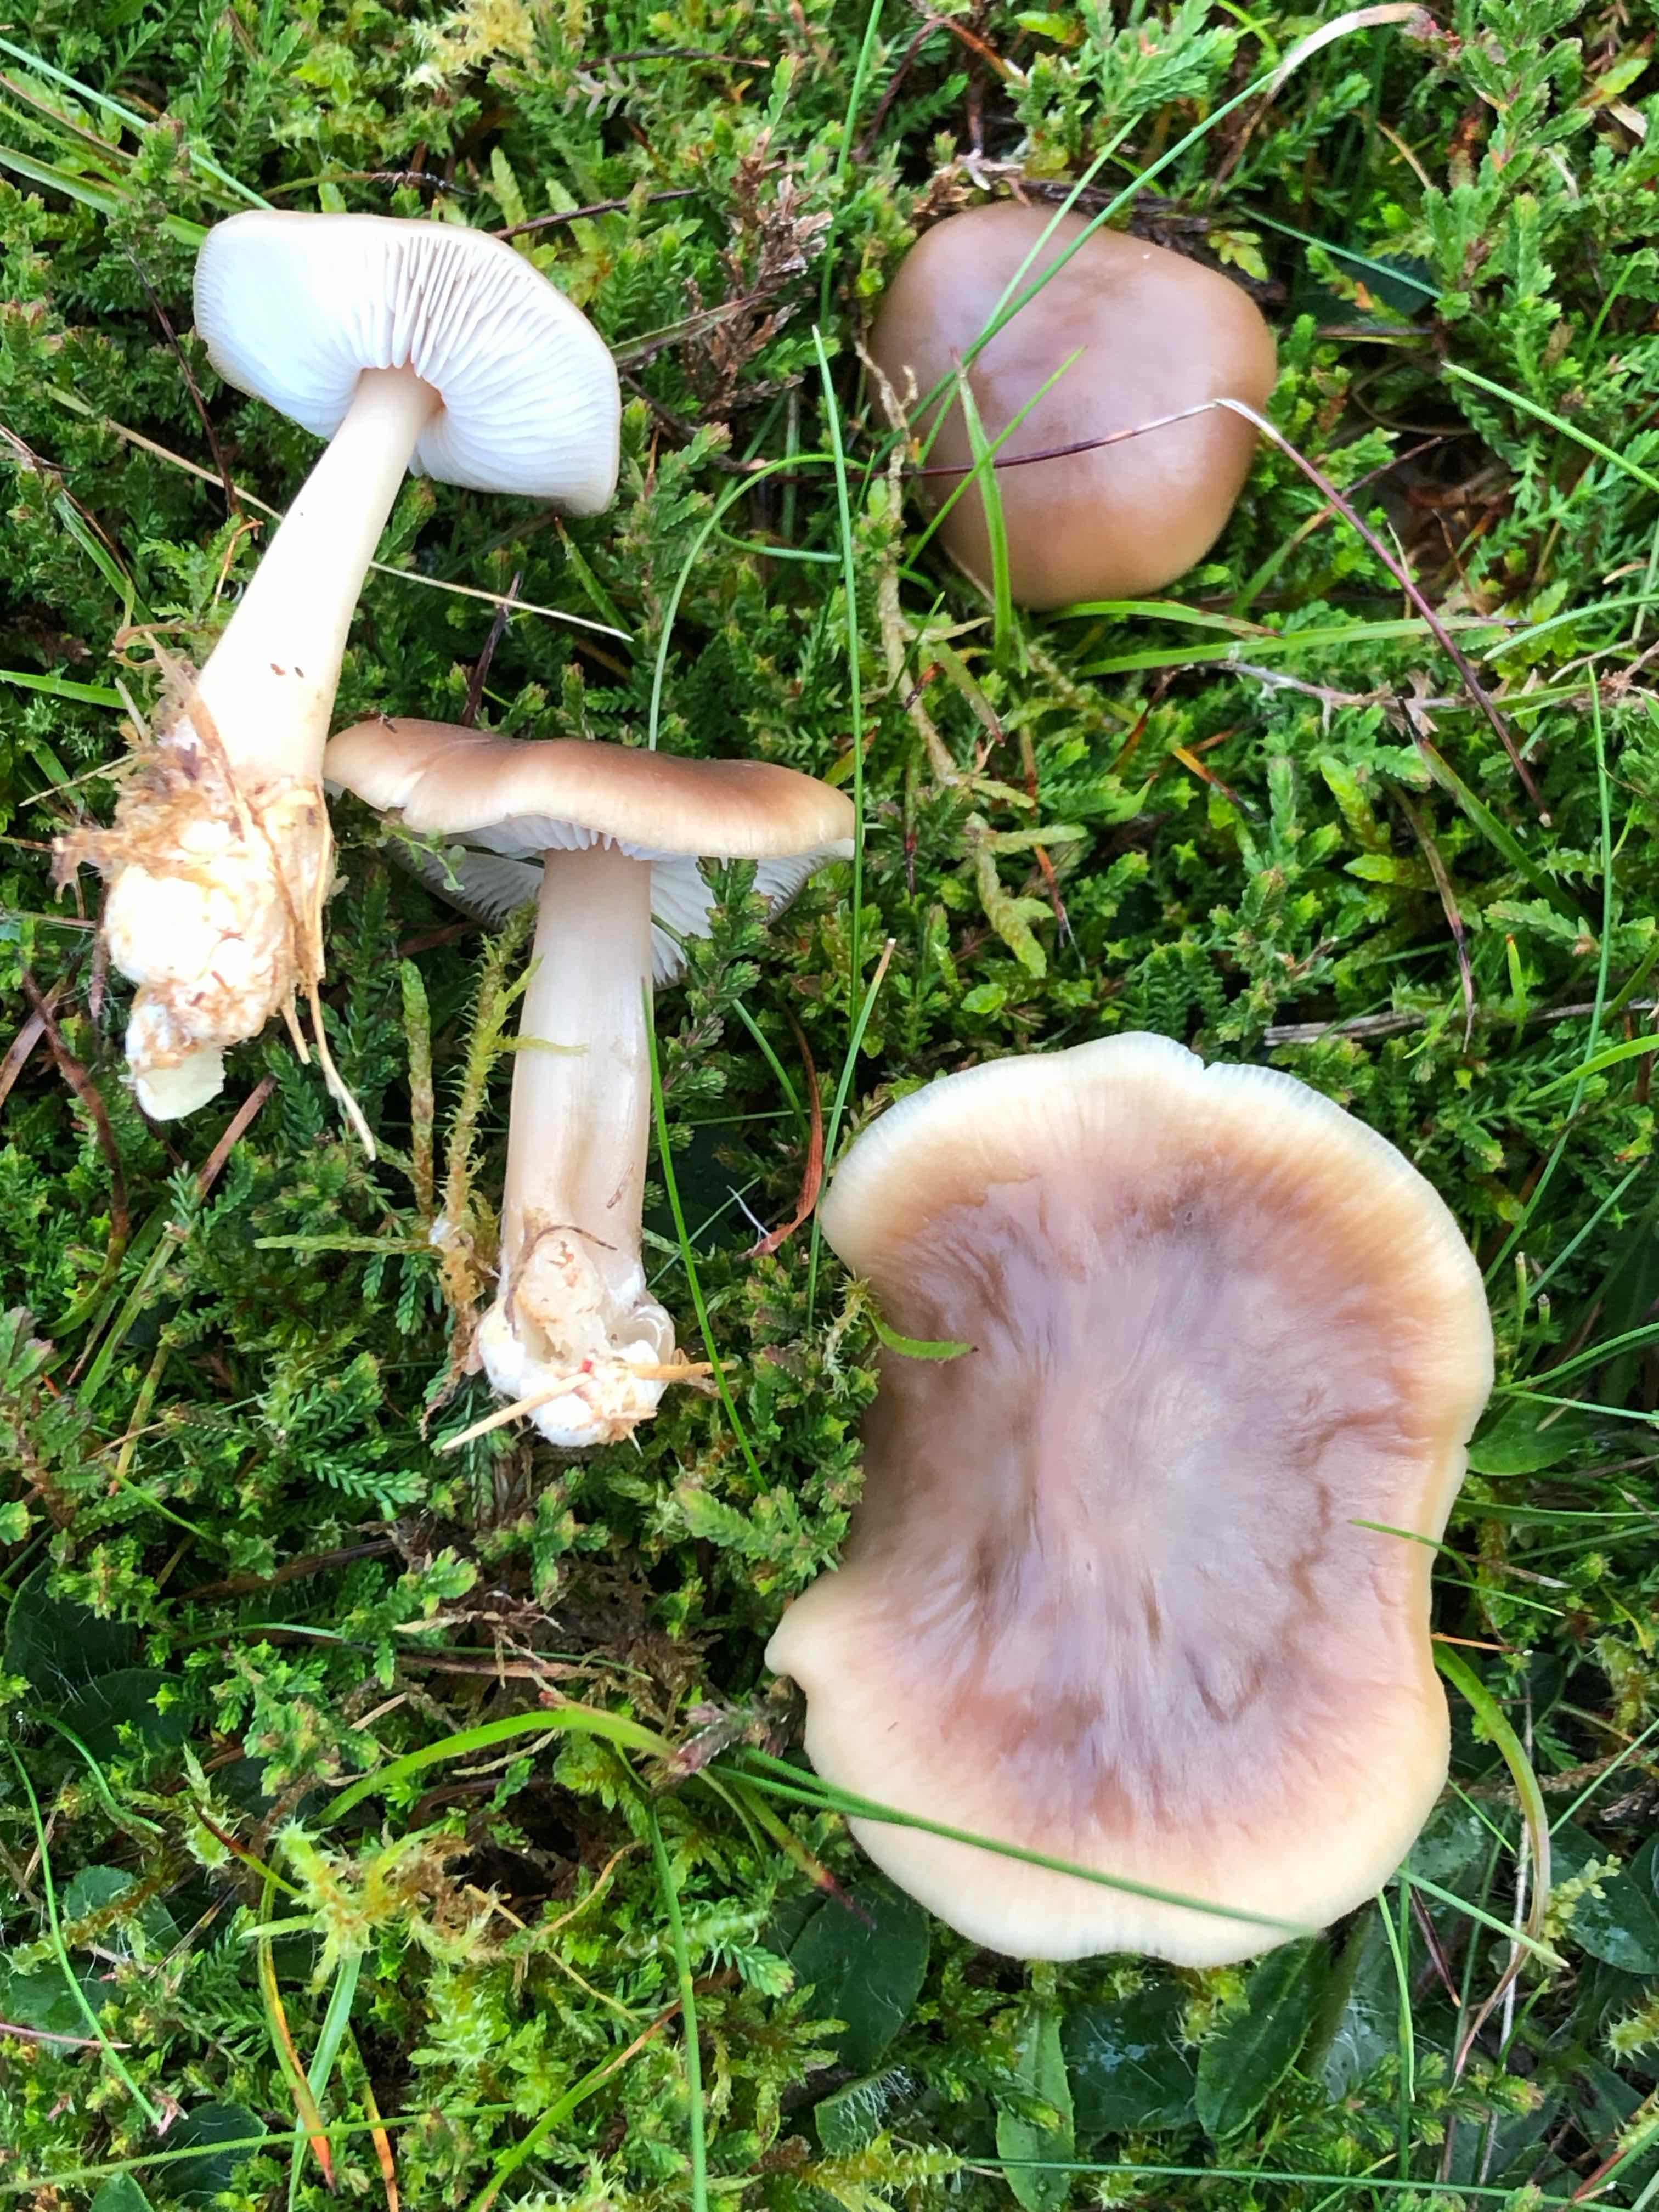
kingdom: Fungi
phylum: Basidiomycota
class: Agaricomycetes
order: Agaricales
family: Omphalotaceae
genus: Rhodocollybia
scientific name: Rhodocollybia
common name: fladhat
